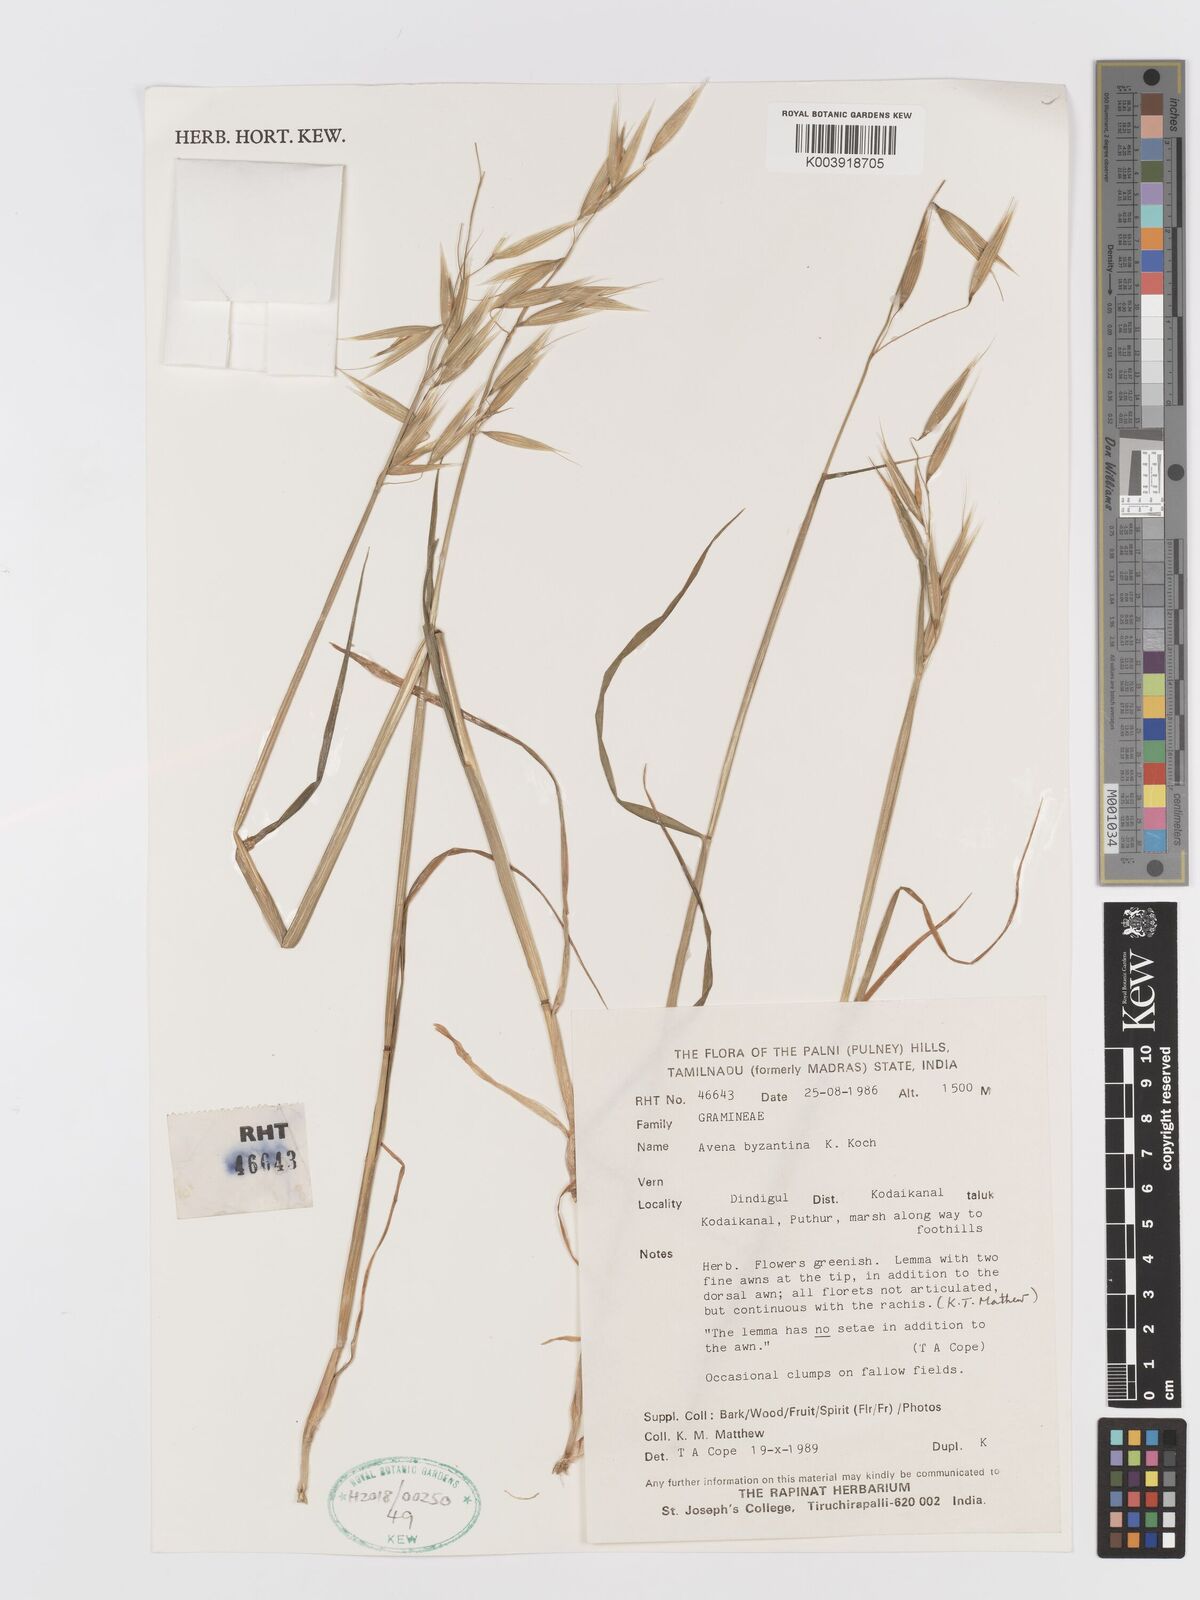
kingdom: Plantae
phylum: Tracheophyta
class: Liliopsida
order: Poales
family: Poaceae
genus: Avena
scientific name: Avena byzantina
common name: Algerian oat
